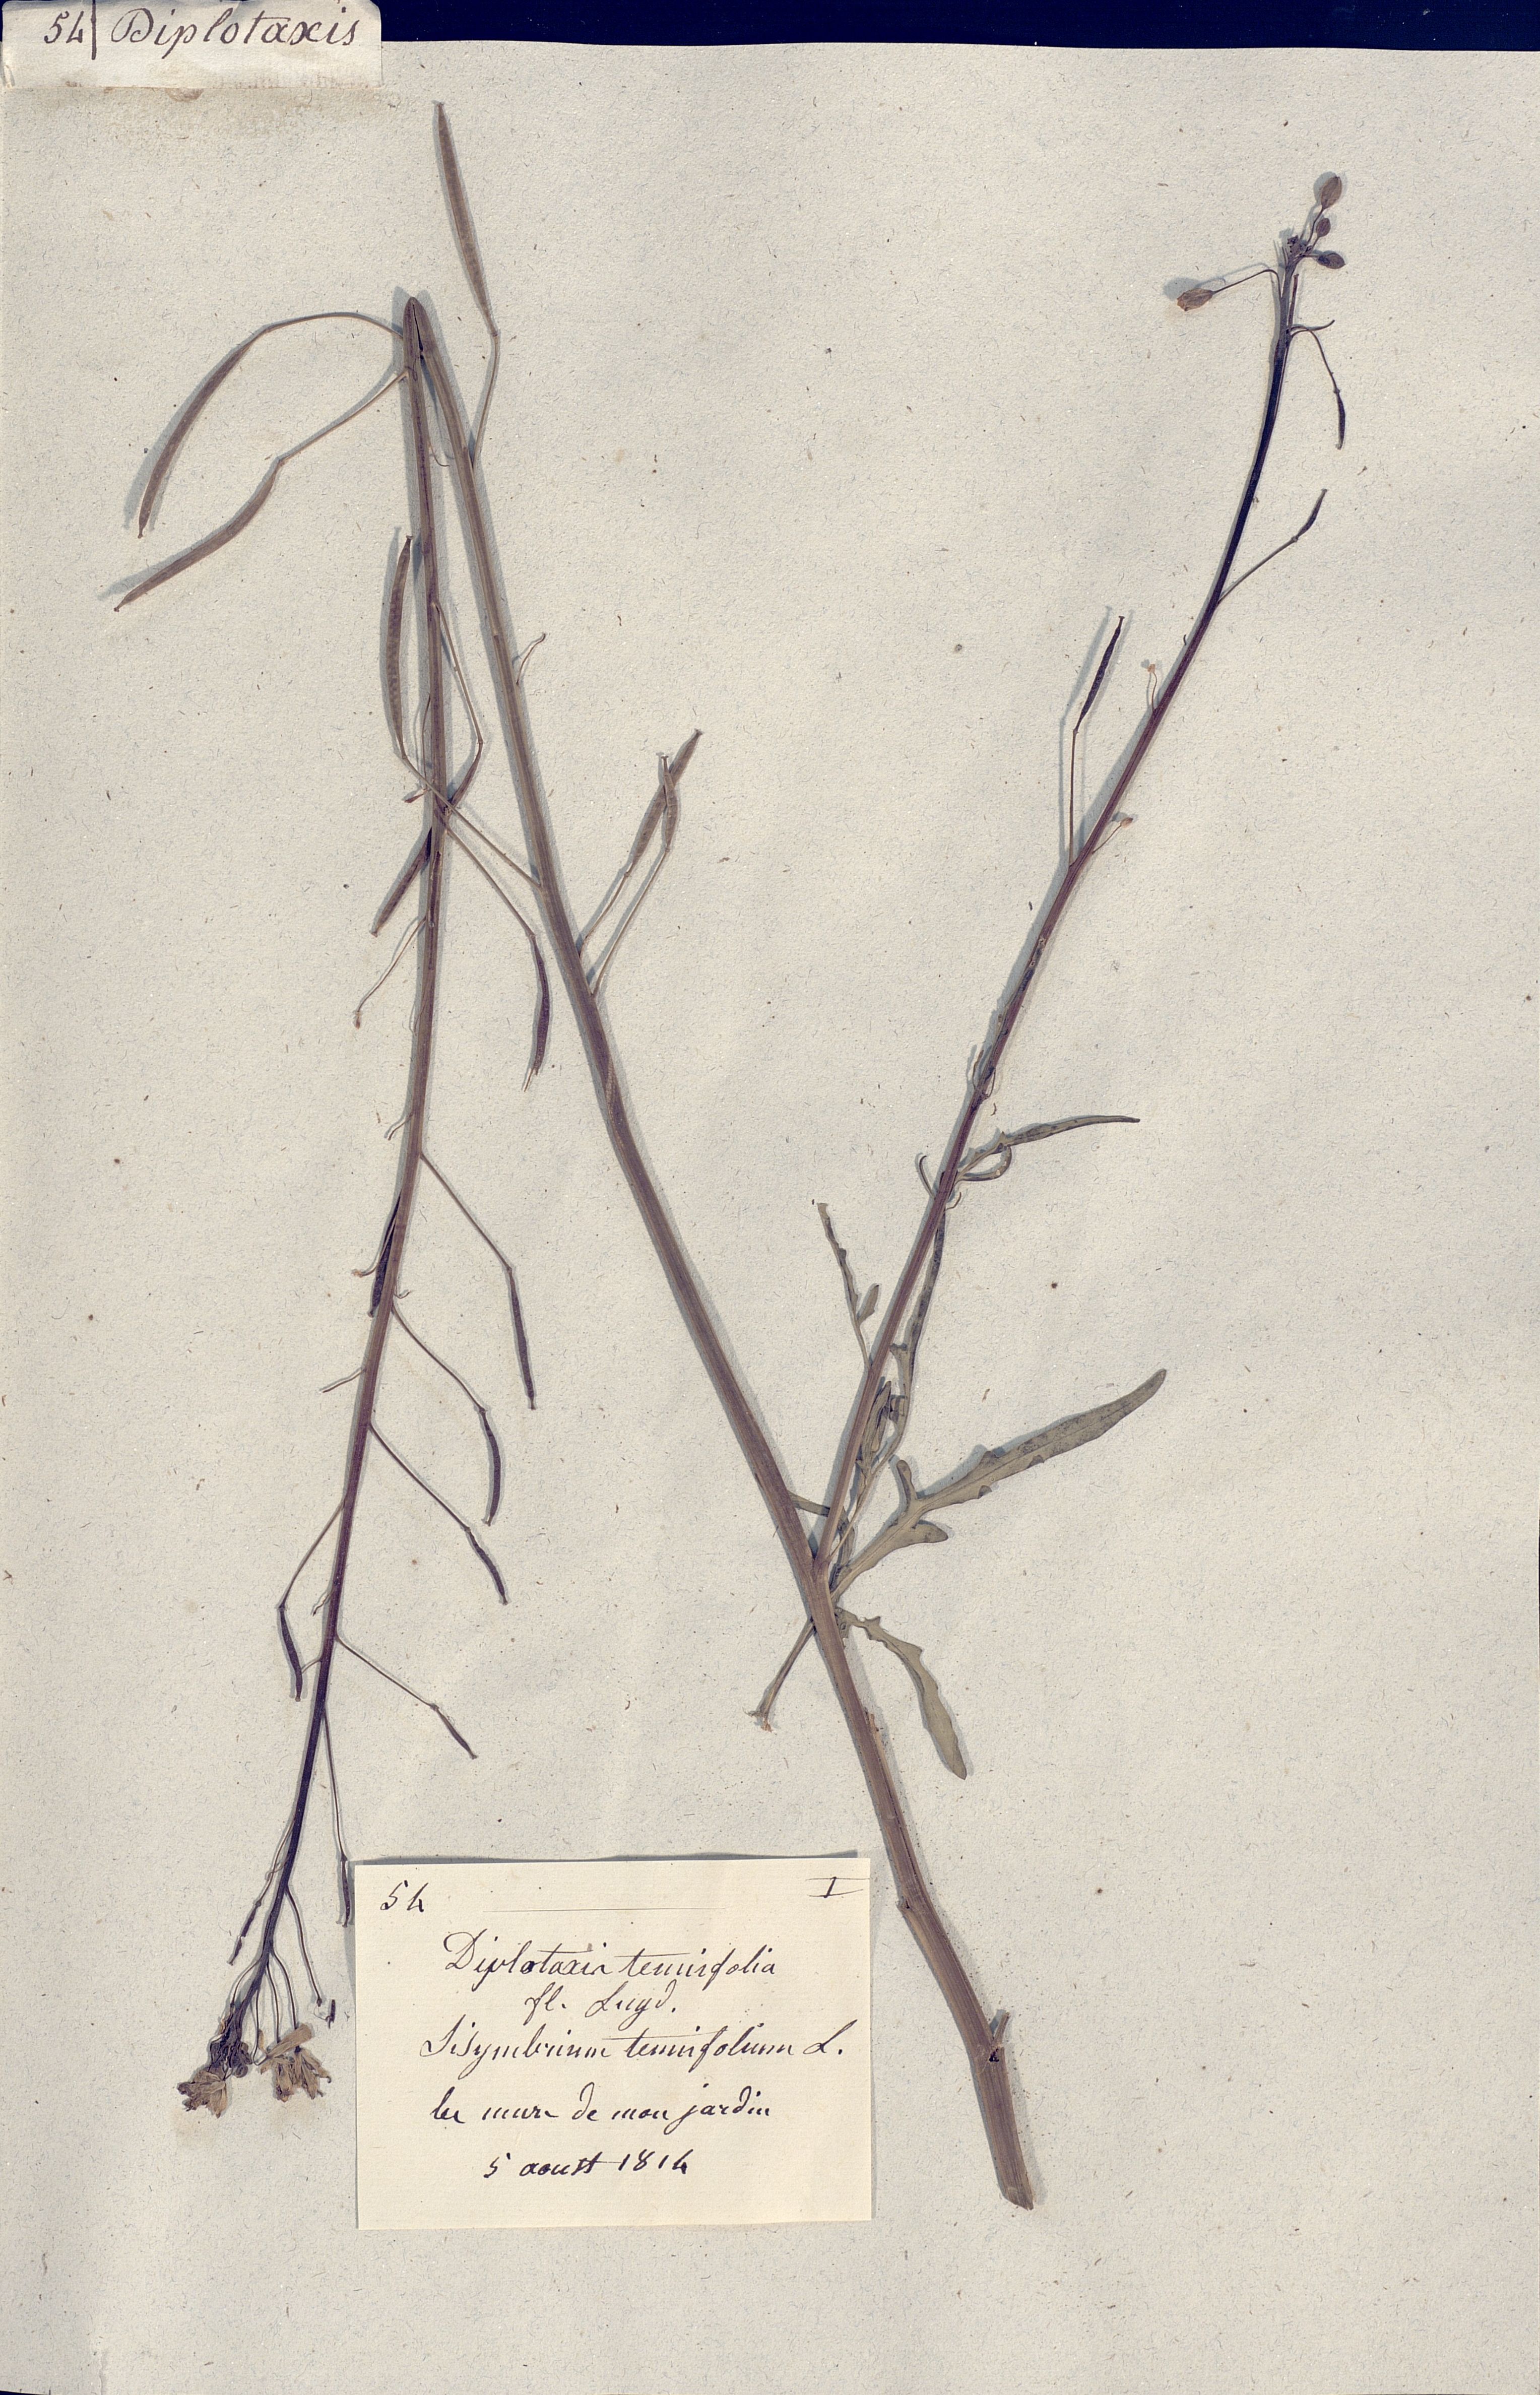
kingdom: Plantae
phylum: Tracheophyta
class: Magnoliopsida
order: Brassicales
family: Brassicaceae
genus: Diplotaxis
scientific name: Diplotaxis tenuifolia
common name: Perennial wall-rocket
